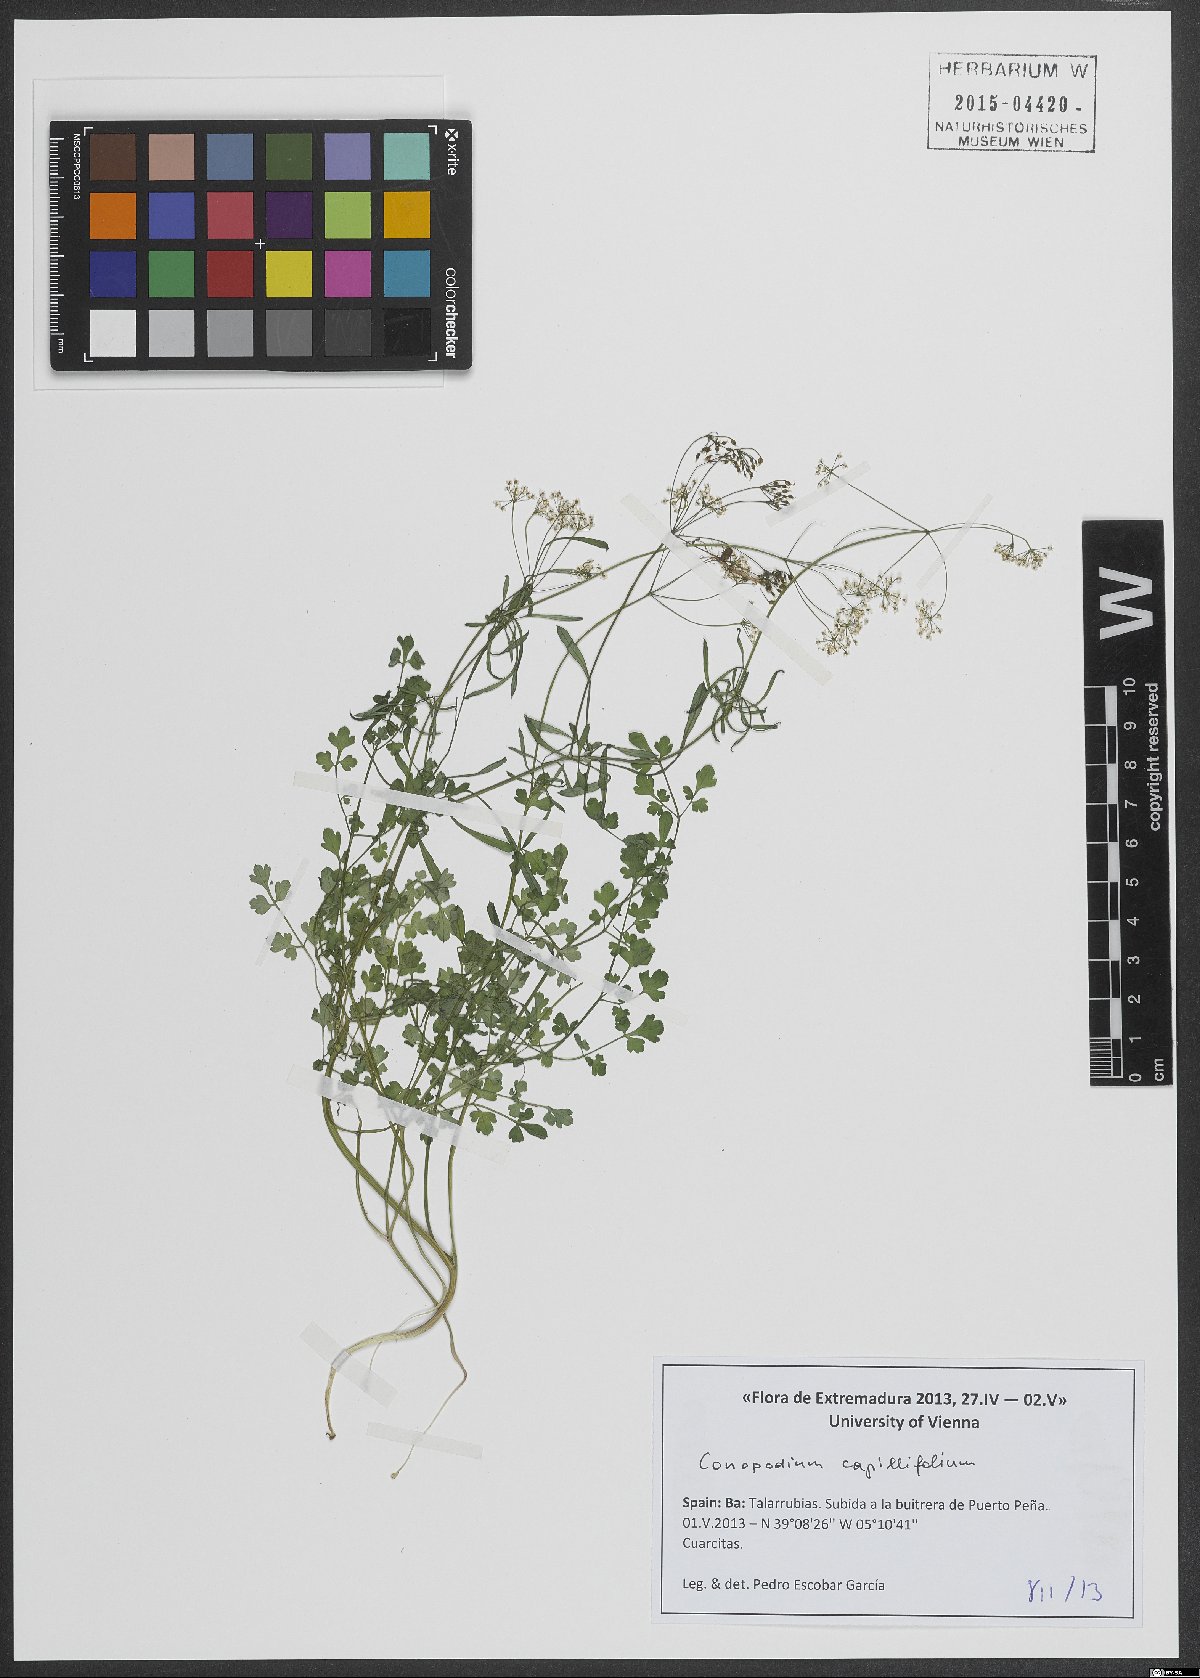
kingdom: Plantae
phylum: Tracheophyta
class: Magnoliopsida
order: Apiales
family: Apiaceae
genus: Geocaryum
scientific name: Geocaryum capillifolium
